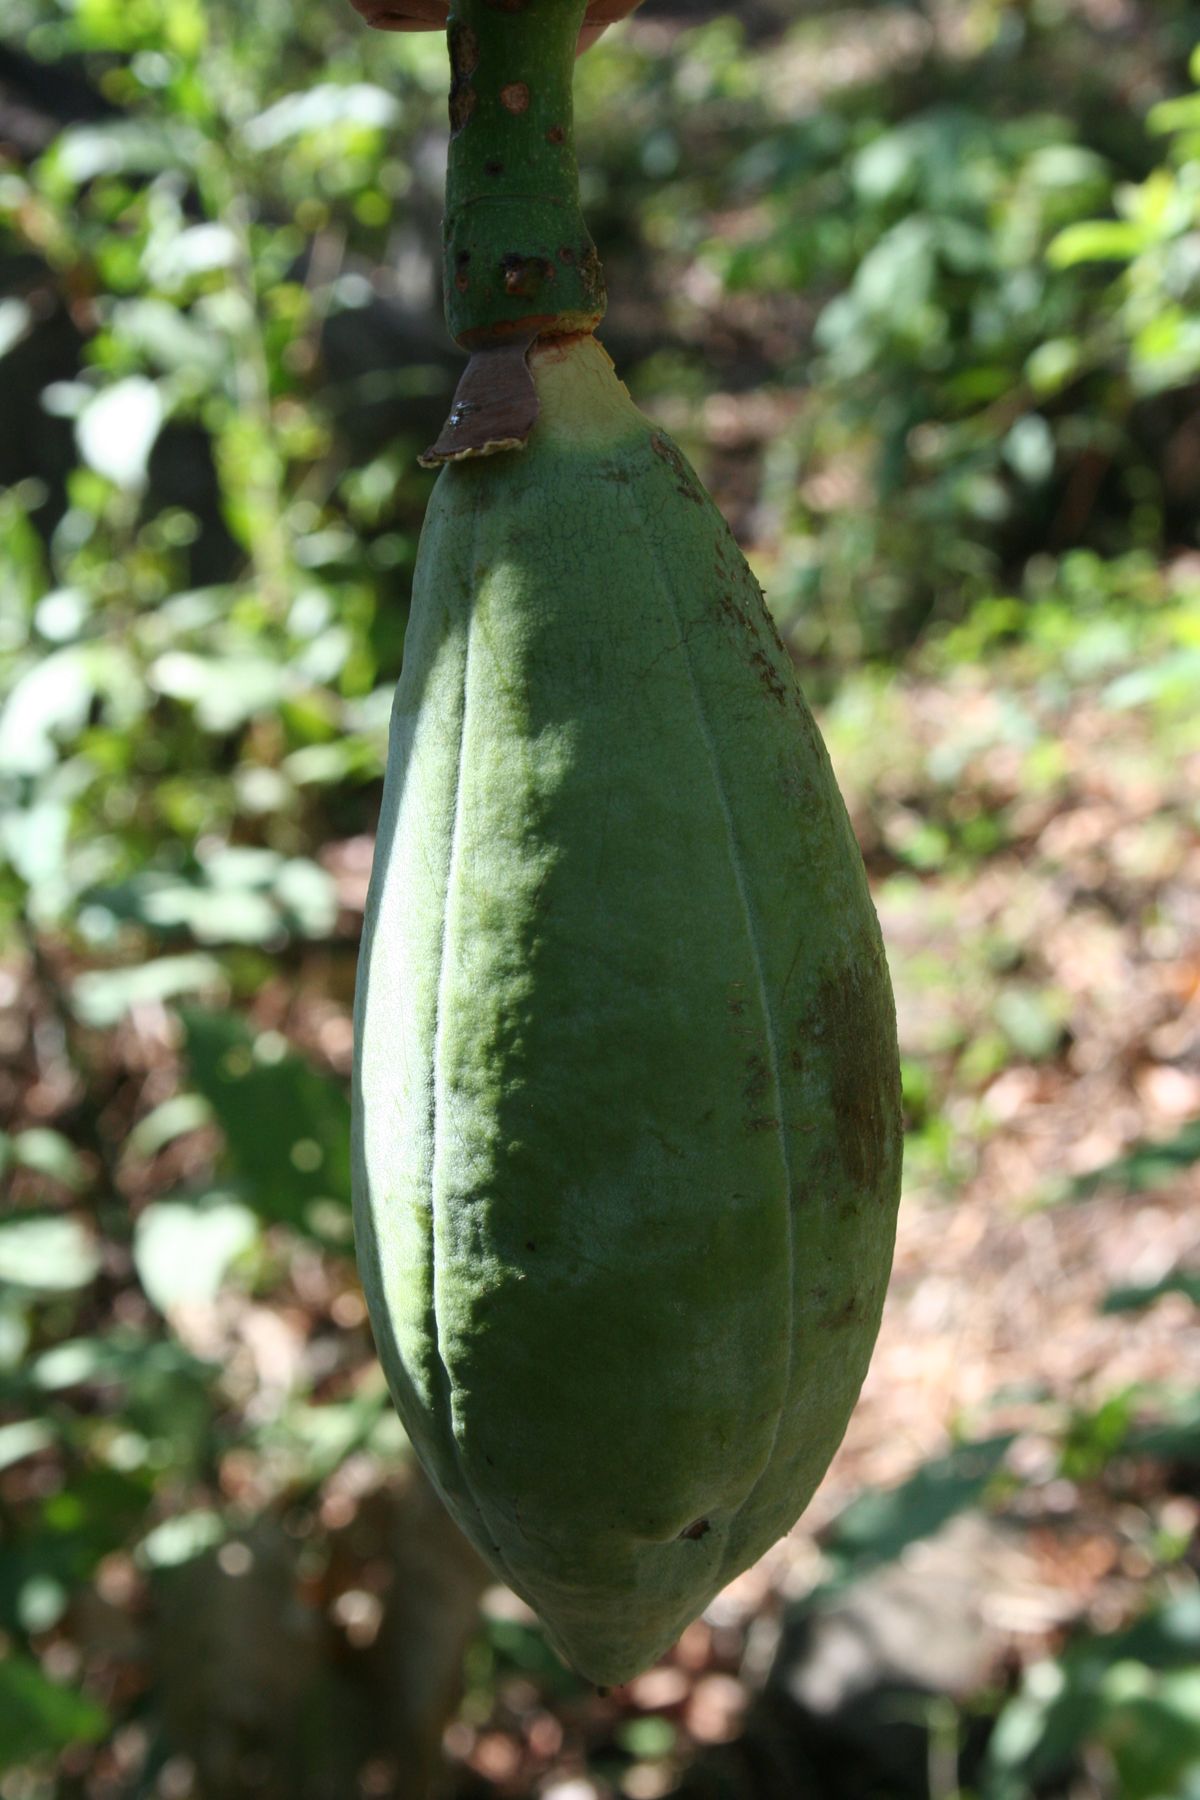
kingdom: Plantae
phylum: Tracheophyta
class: Magnoliopsida
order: Malvales
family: Malvaceae
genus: Ceiba
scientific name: Ceiba aesculifolia
